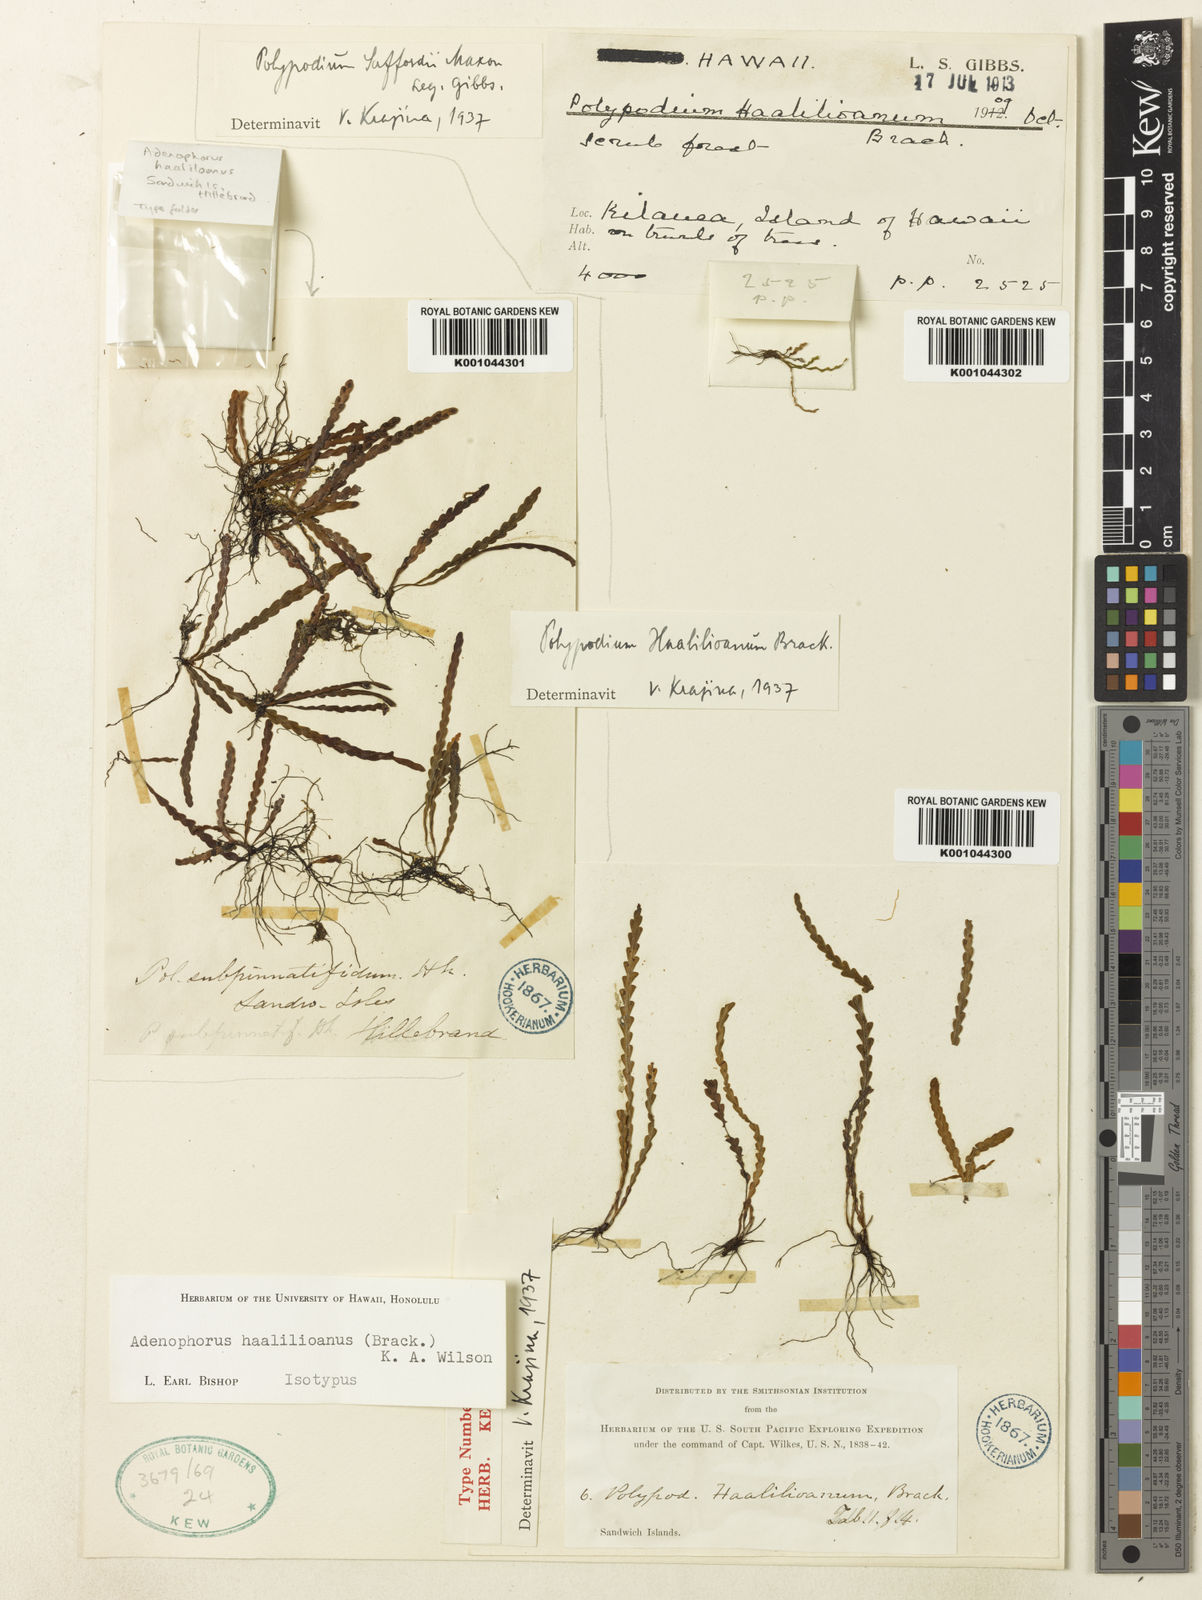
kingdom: Plantae
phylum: Tracheophyta
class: Polypodiopsida
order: Polypodiales
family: Polypodiaceae
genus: Adenophorus
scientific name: Adenophorus haalilioanus
